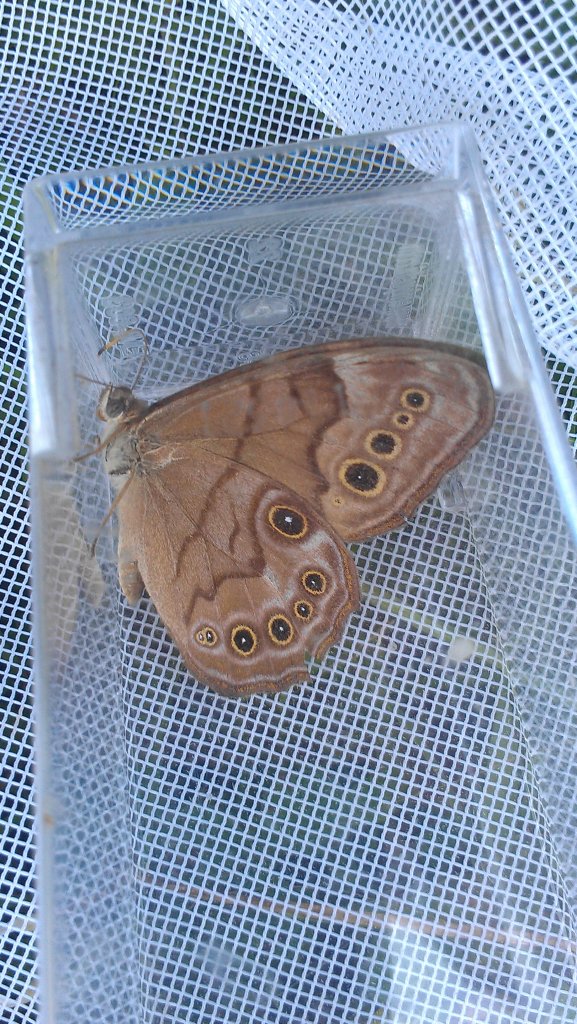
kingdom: Animalia
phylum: Arthropoda
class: Insecta
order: Lepidoptera
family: Nymphalidae
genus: Lethe
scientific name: Lethe anthedon
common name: Northern Pearly-Eye
